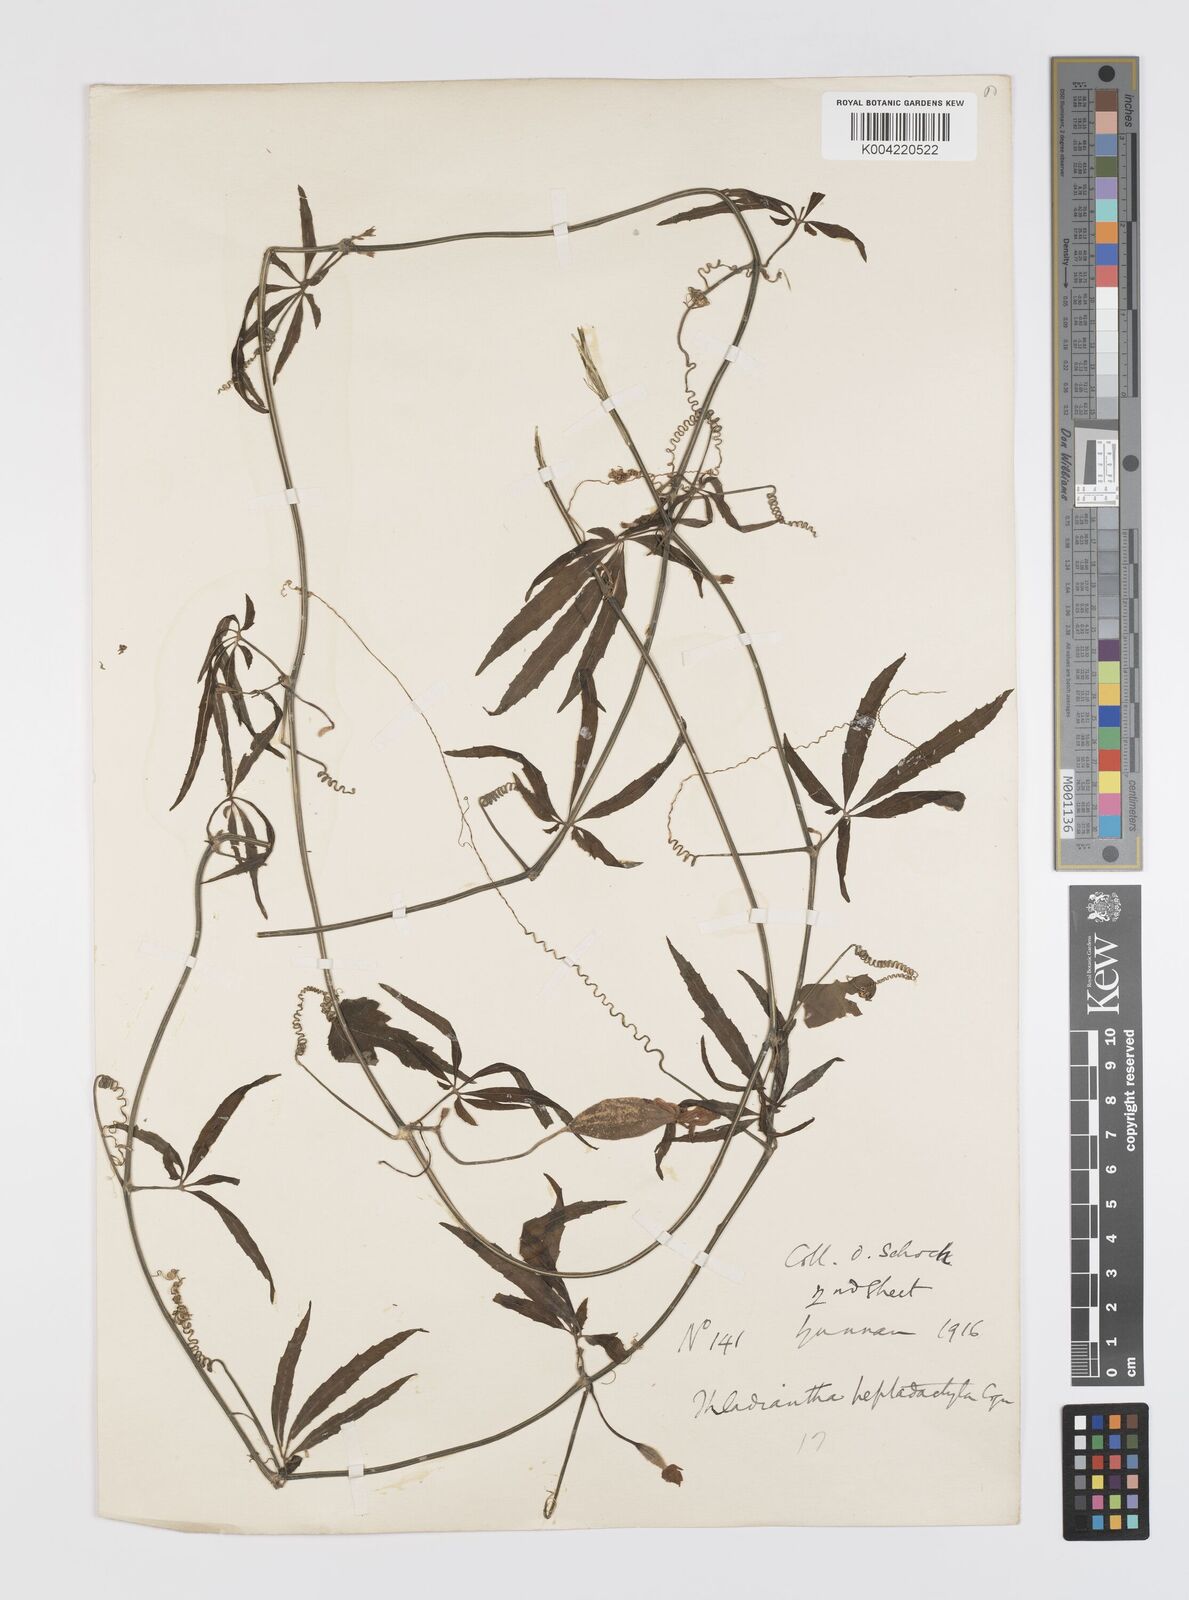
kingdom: Plantae
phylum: Tracheophyta
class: Magnoliopsida
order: Cucurbitales
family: Cucurbitaceae
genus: Thladiantha
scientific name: Thladiantha hookeri
